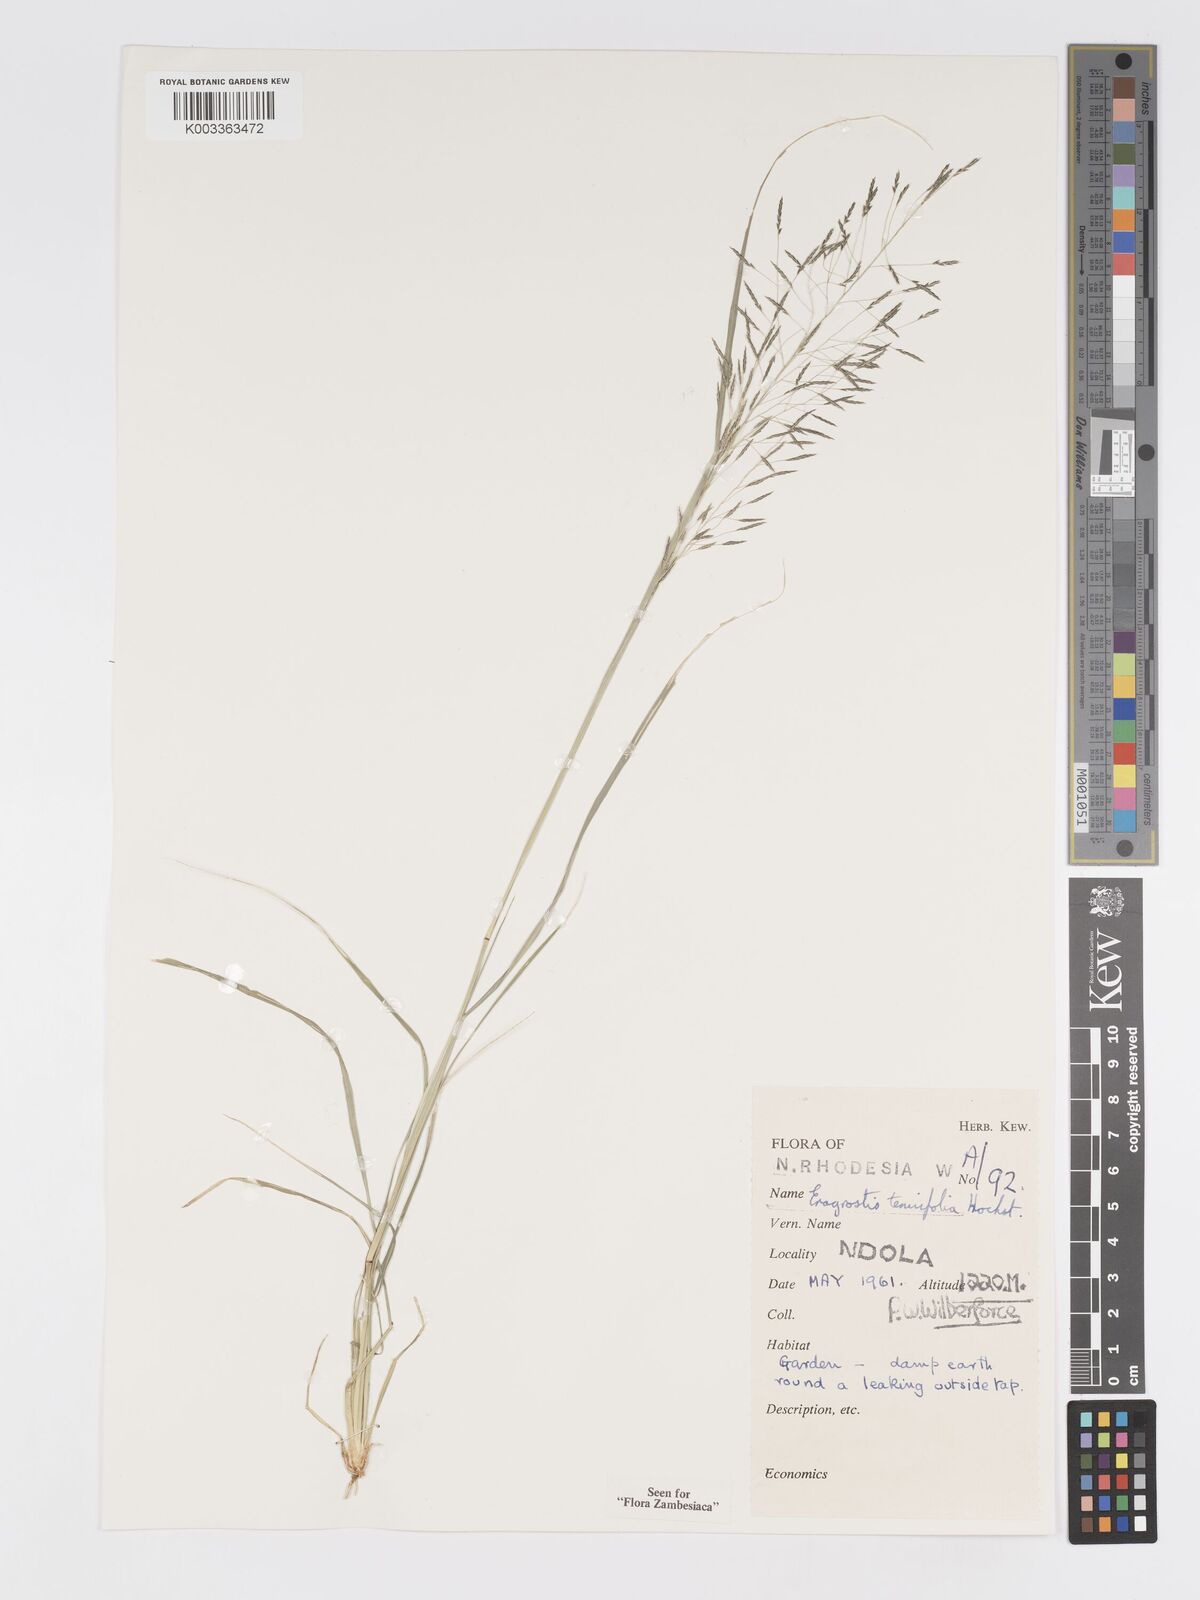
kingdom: Plantae
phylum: Tracheophyta
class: Liliopsida
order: Poales
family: Poaceae
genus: Eragrostis
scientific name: Eragrostis tenuifolia
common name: Elastic grass
